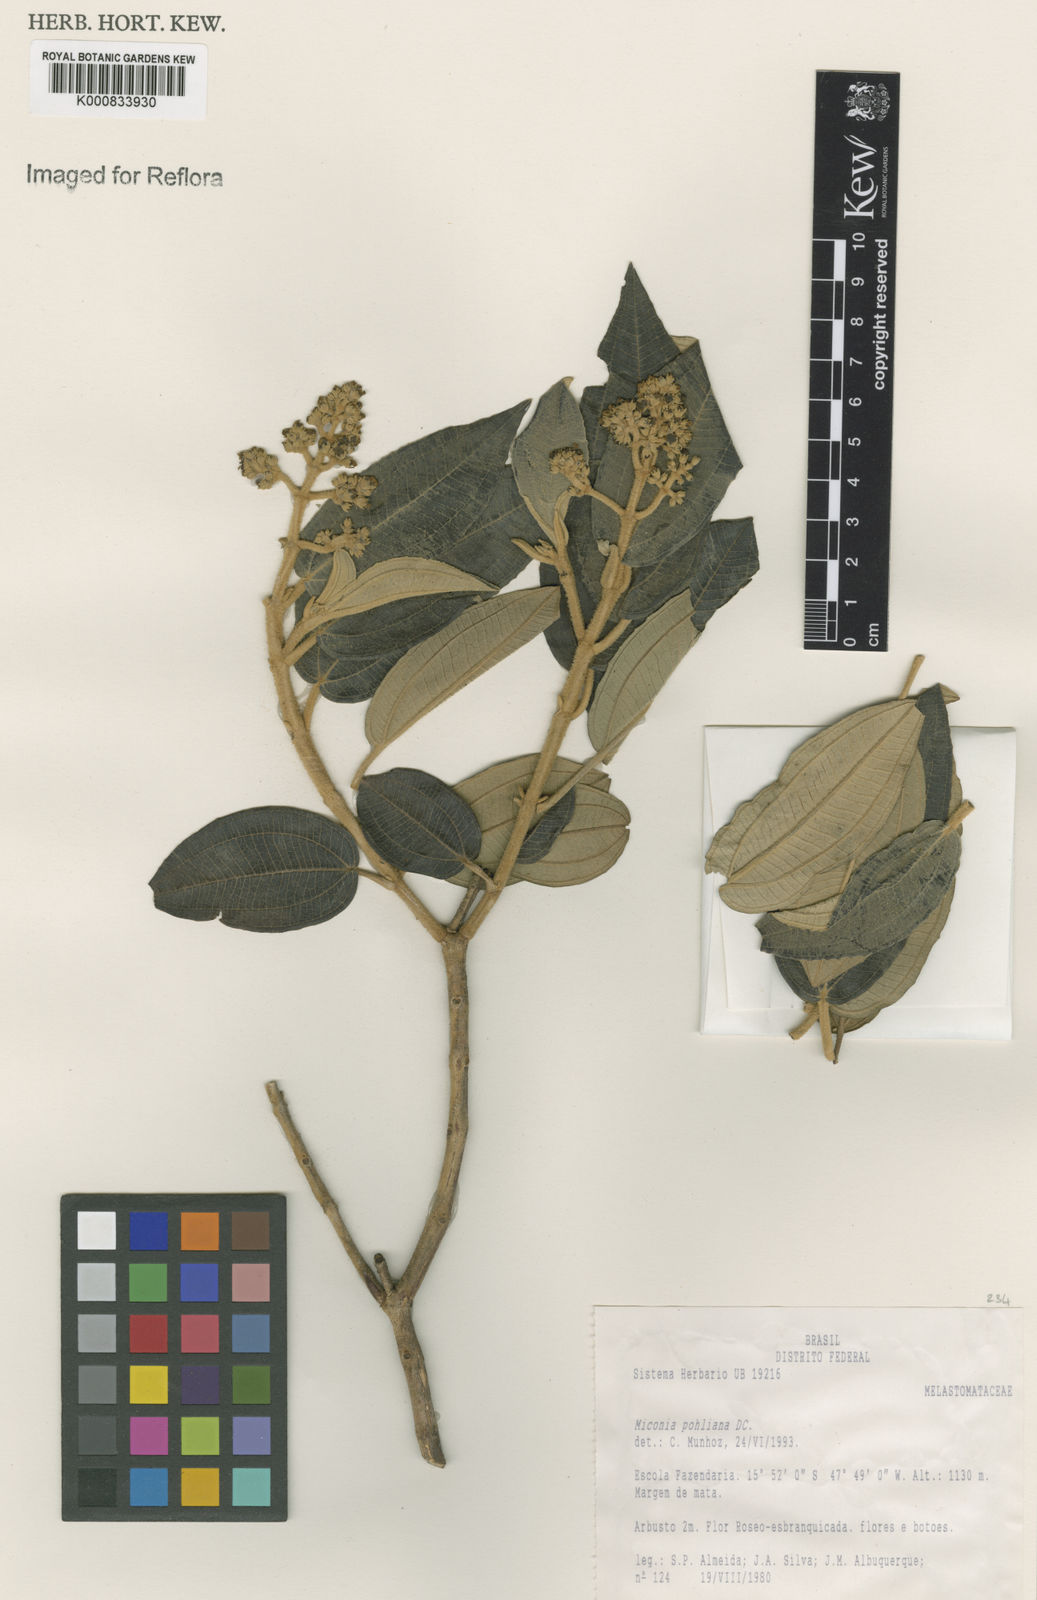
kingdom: Plantae
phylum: Tracheophyta
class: Magnoliopsida
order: Myrtales
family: Melastomataceae
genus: Miconia
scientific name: Miconia leucocarpa
